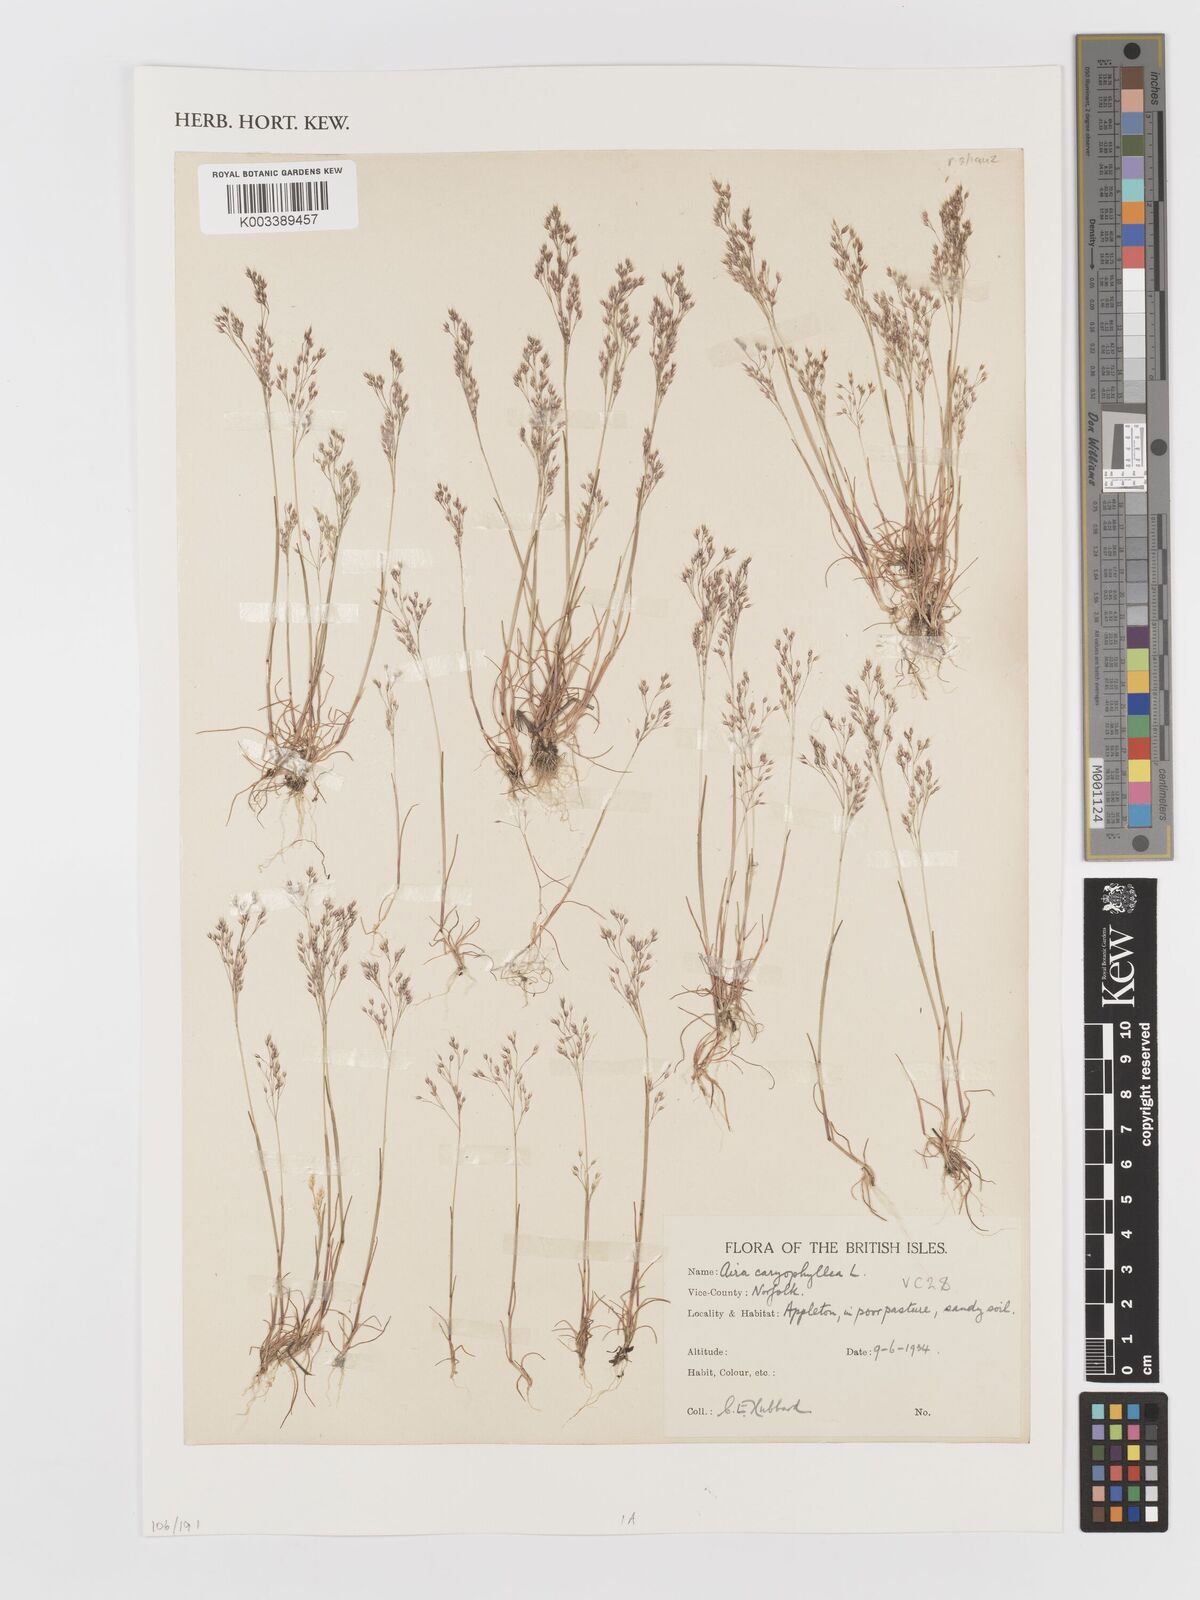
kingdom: Plantae
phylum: Tracheophyta
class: Liliopsida
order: Poales
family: Poaceae
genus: Aira
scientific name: Aira caryophyllea
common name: Silver hairgrass
